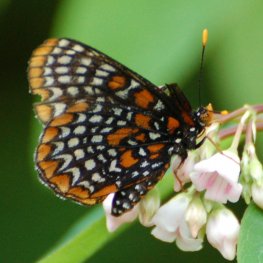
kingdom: Animalia
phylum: Arthropoda
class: Insecta
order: Lepidoptera
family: Nymphalidae
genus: Euphydryas
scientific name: Euphydryas phaeton
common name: Baltimore Checkerspot
